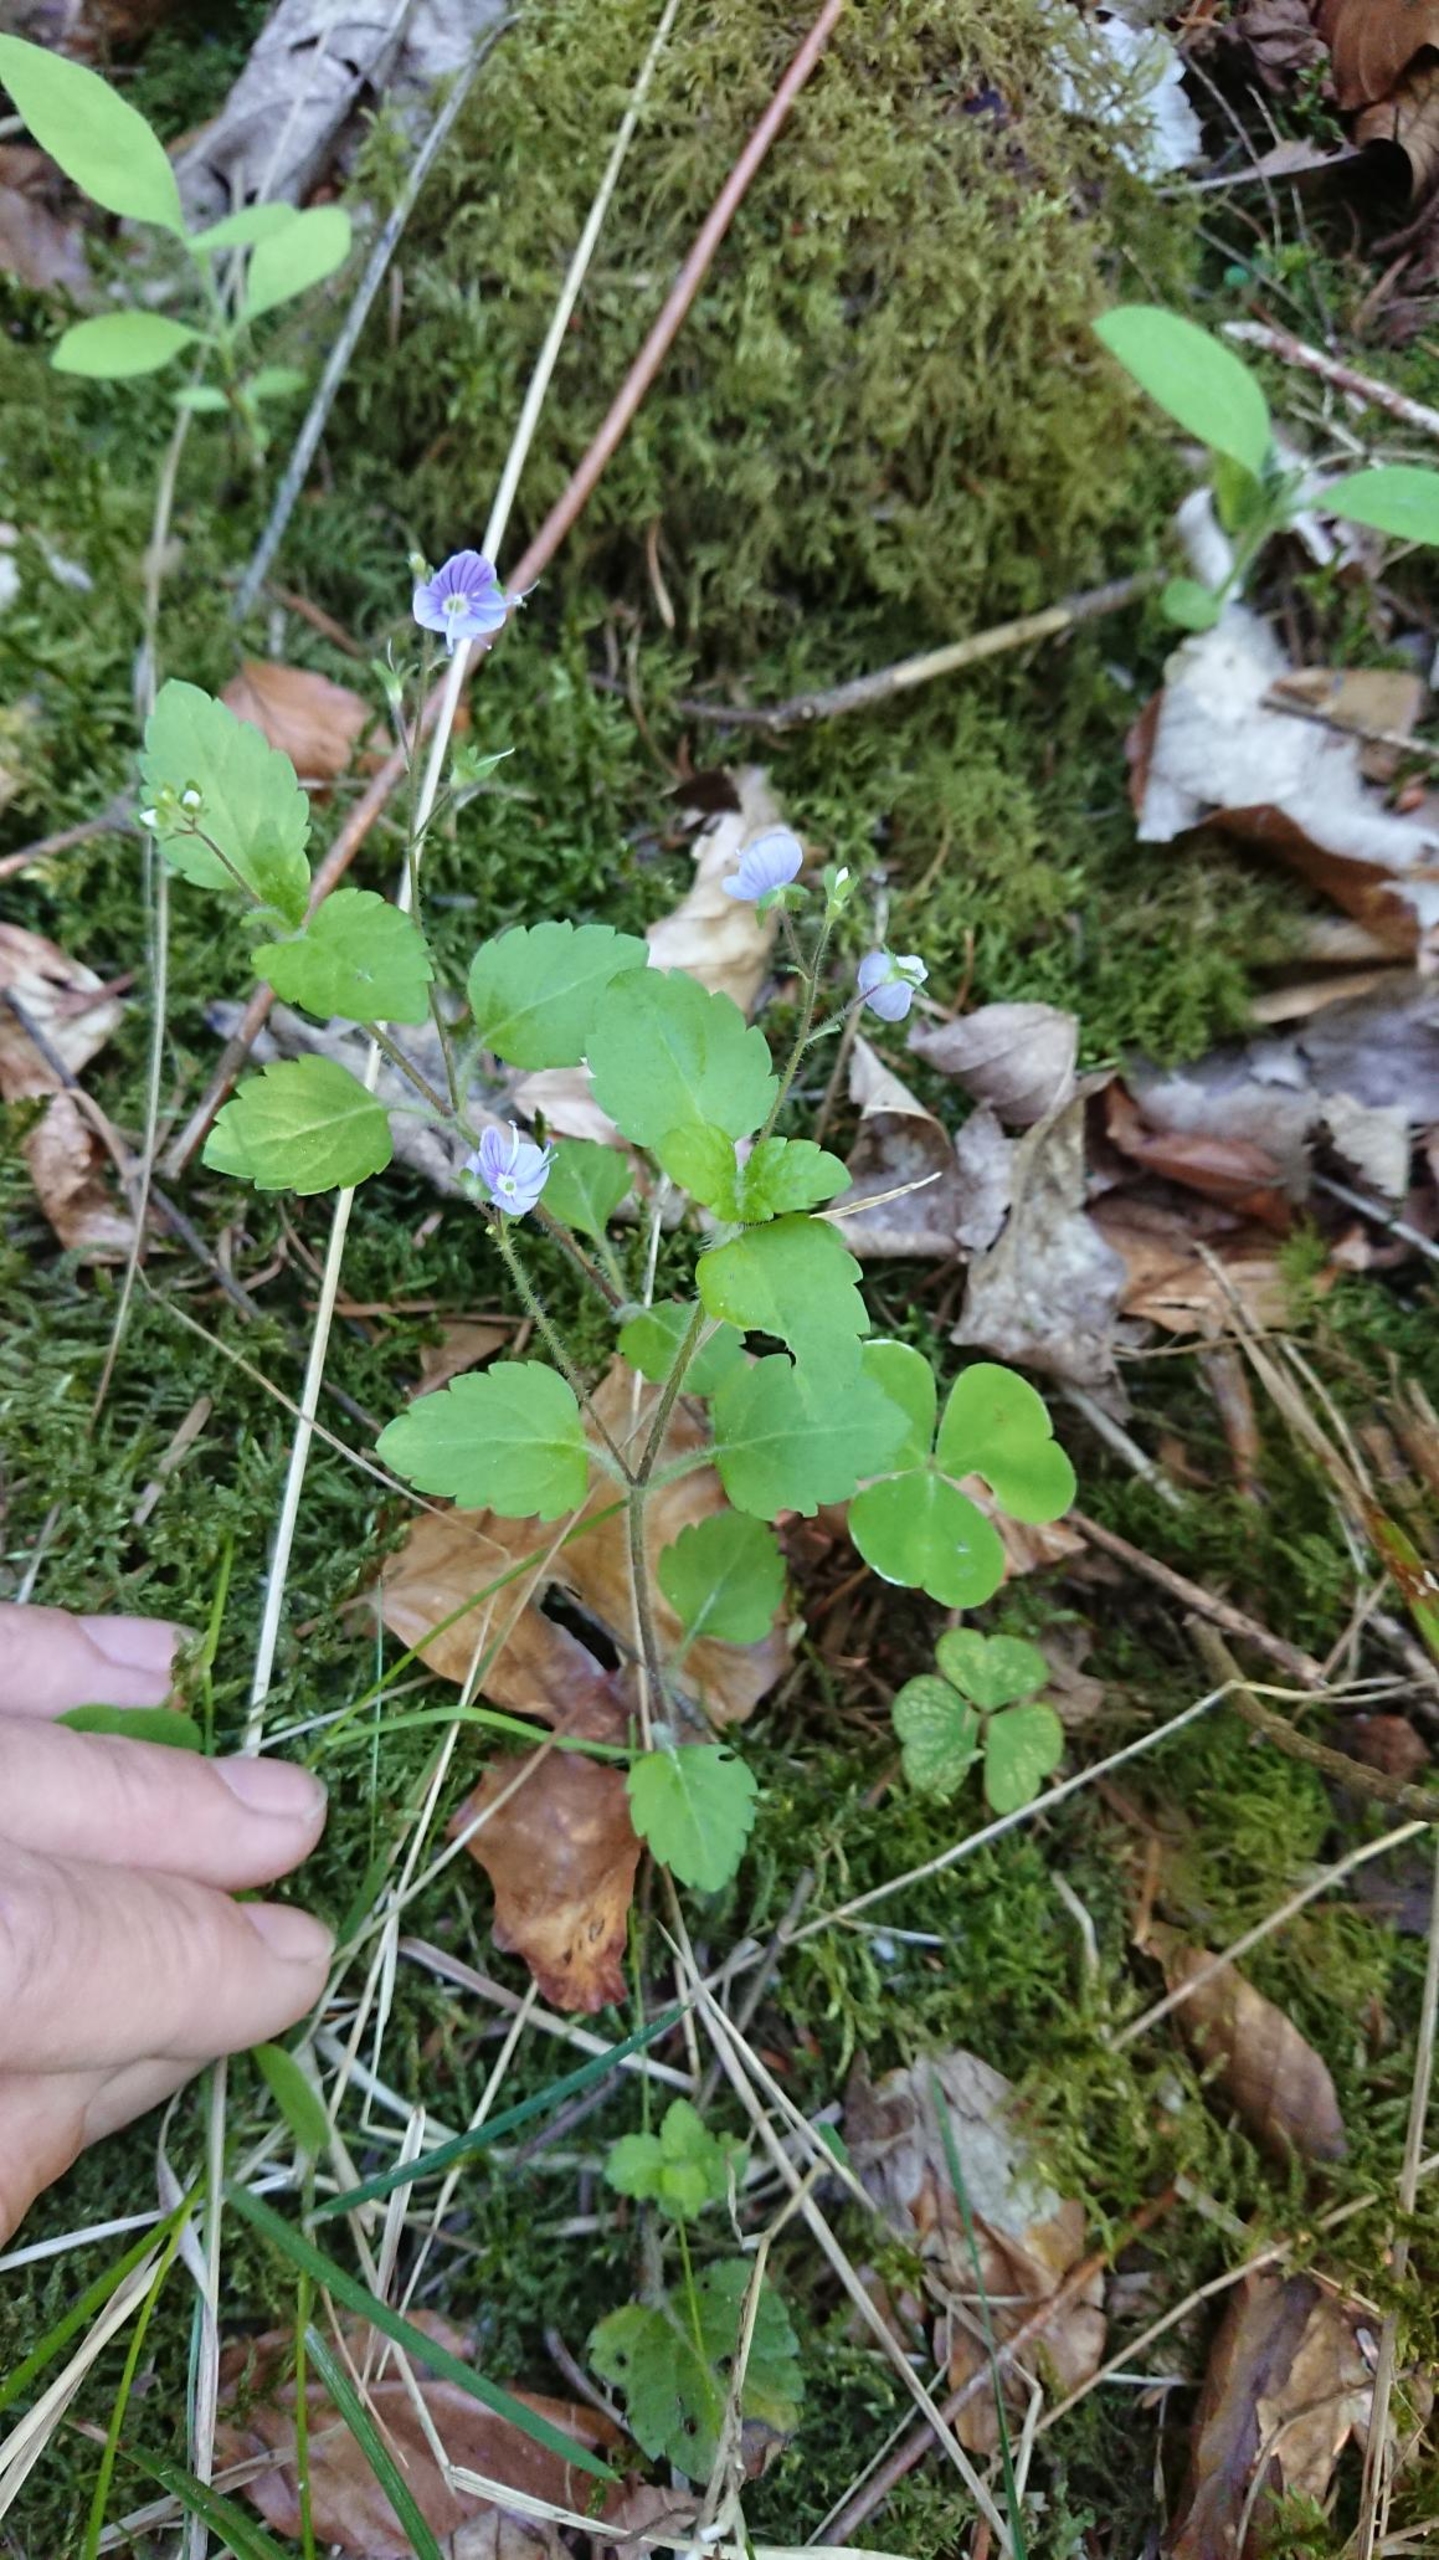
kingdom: Plantae
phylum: Tracheophyta
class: Magnoliopsida
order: Lamiales
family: Plantaginaceae
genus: Veronica
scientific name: Veronica montana
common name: Bjerg-ærenpris
